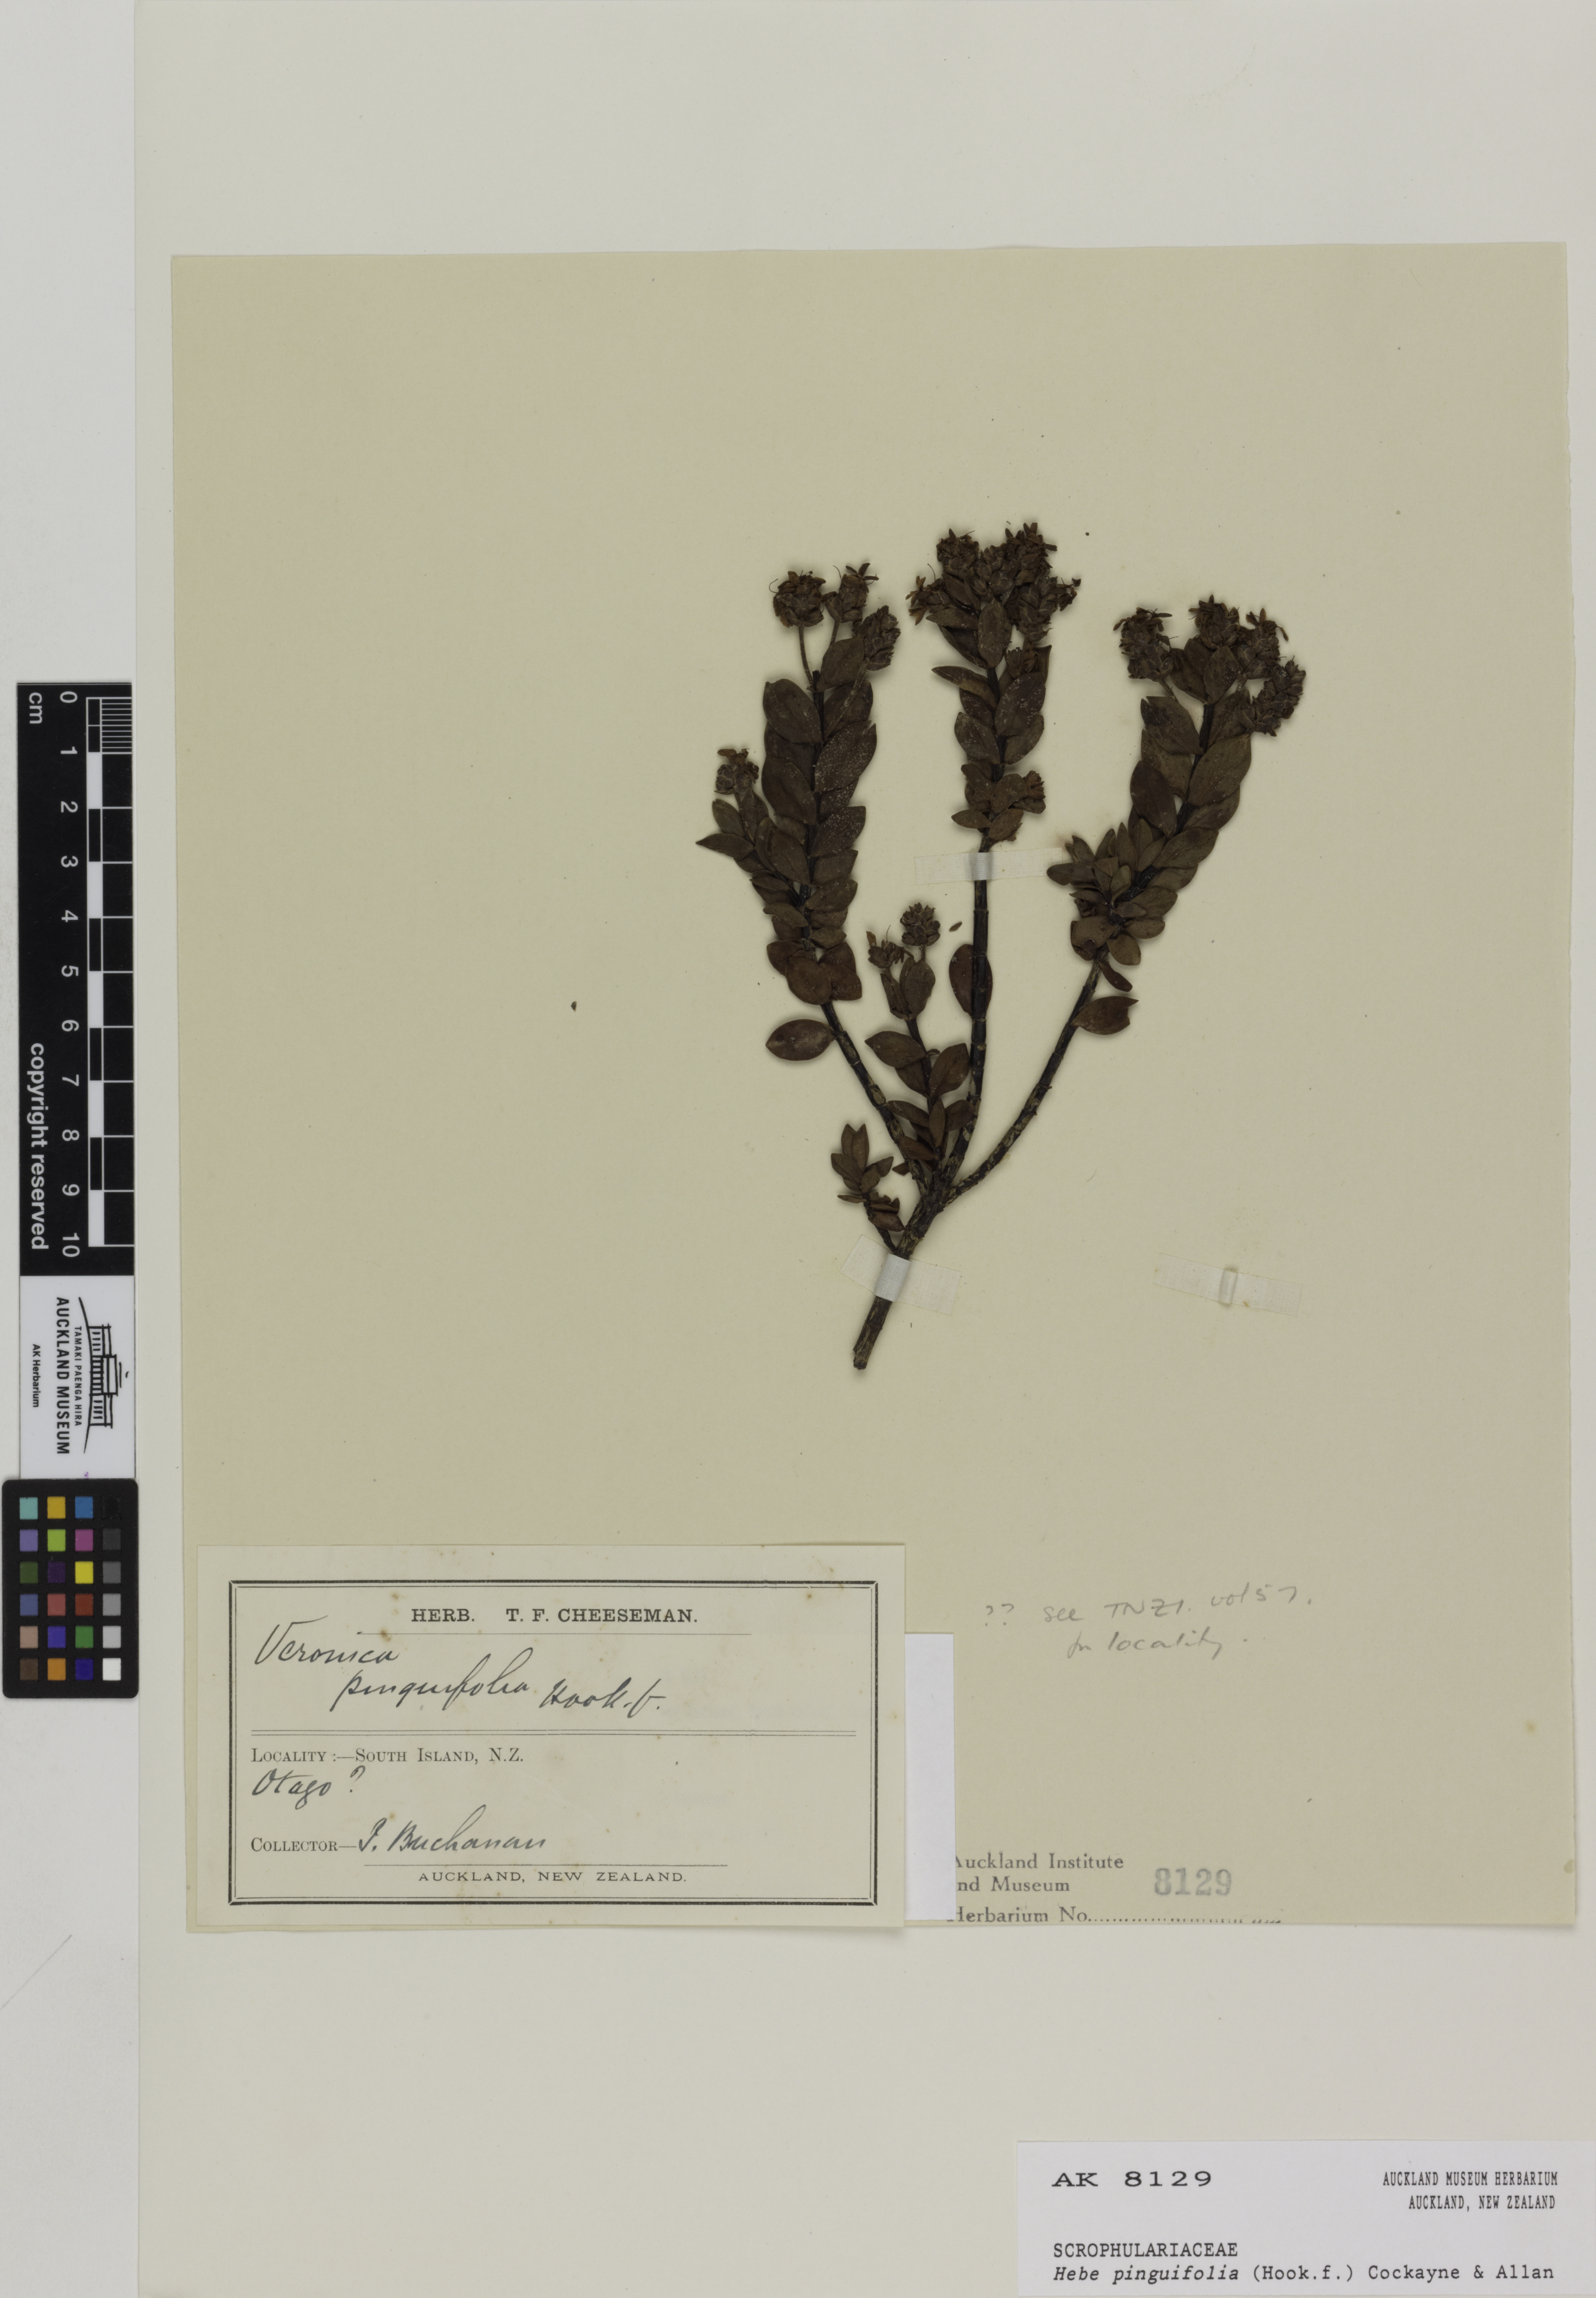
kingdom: Plantae
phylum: Tracheophyta
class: Magnoliopsida
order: Lamiales
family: Plantaginaceae
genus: Veronica
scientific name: Veronica pinguifolia
